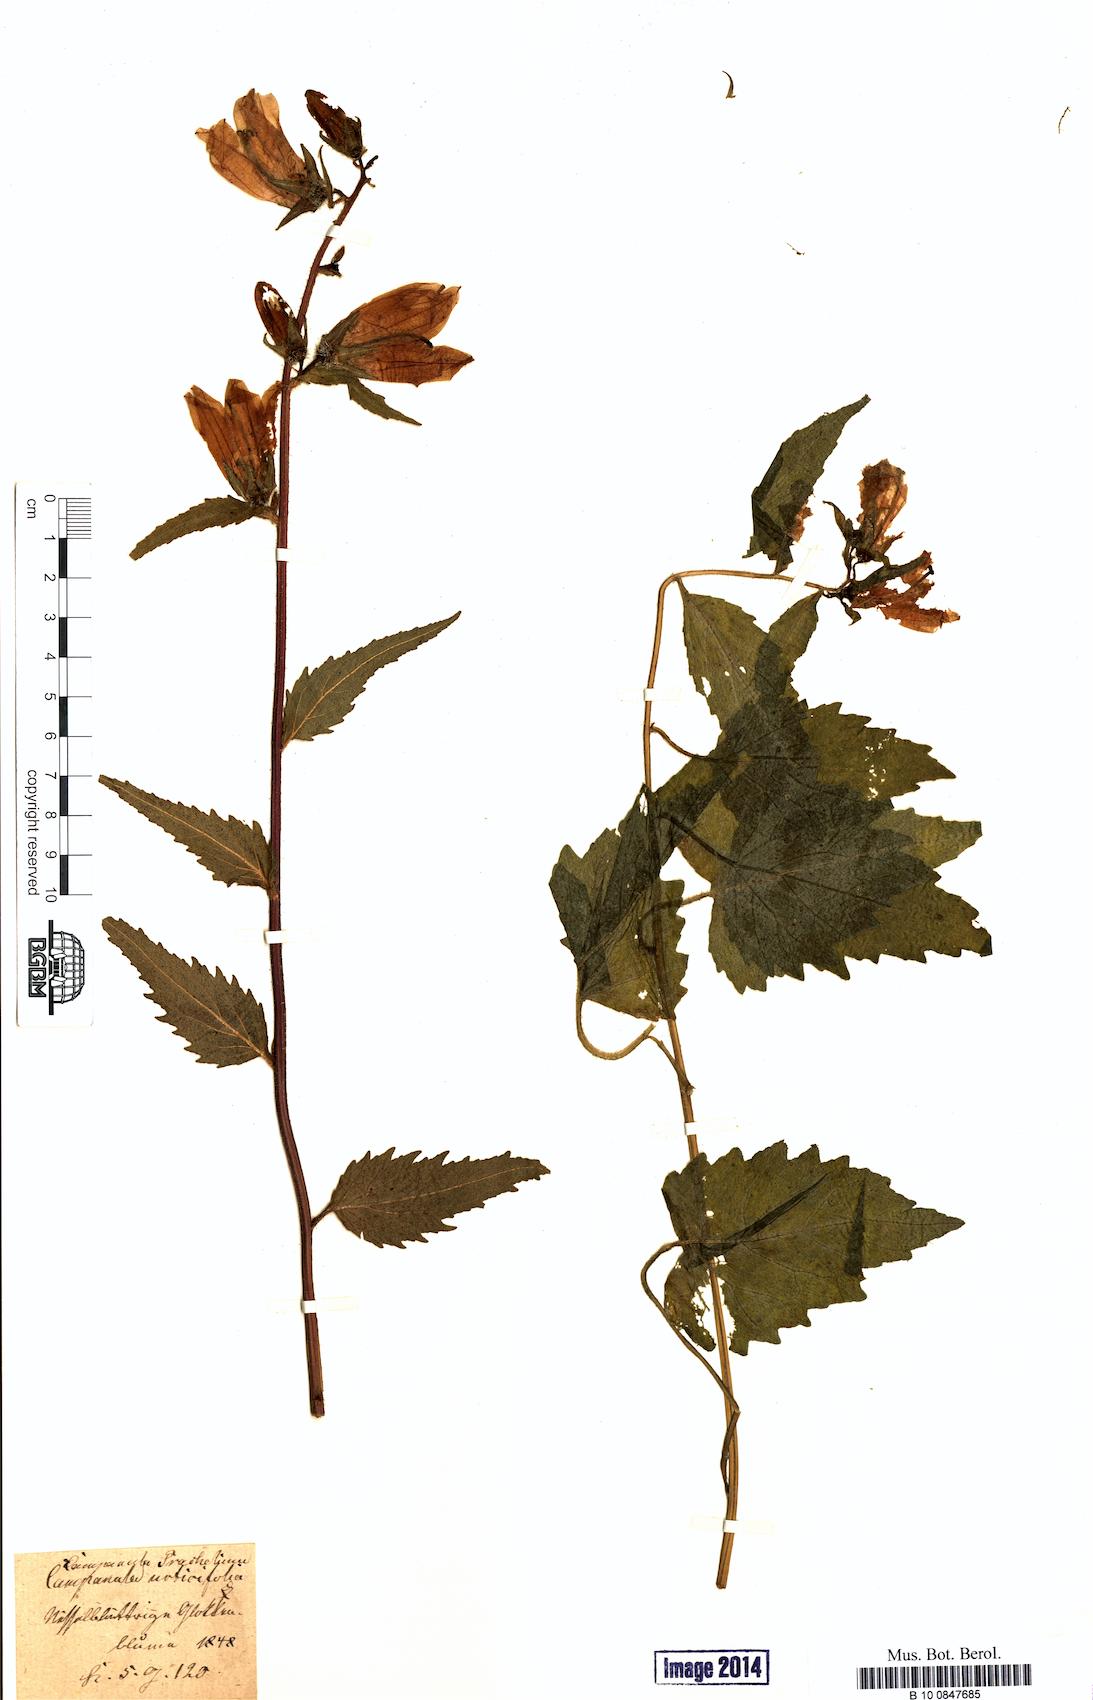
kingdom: Plantae
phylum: Tracheophyta
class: Magnoliopsida
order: Asterales
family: Campanulaceae
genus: Campanula
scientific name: Campanula trachelium
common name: Nettle-leaved bellflower
